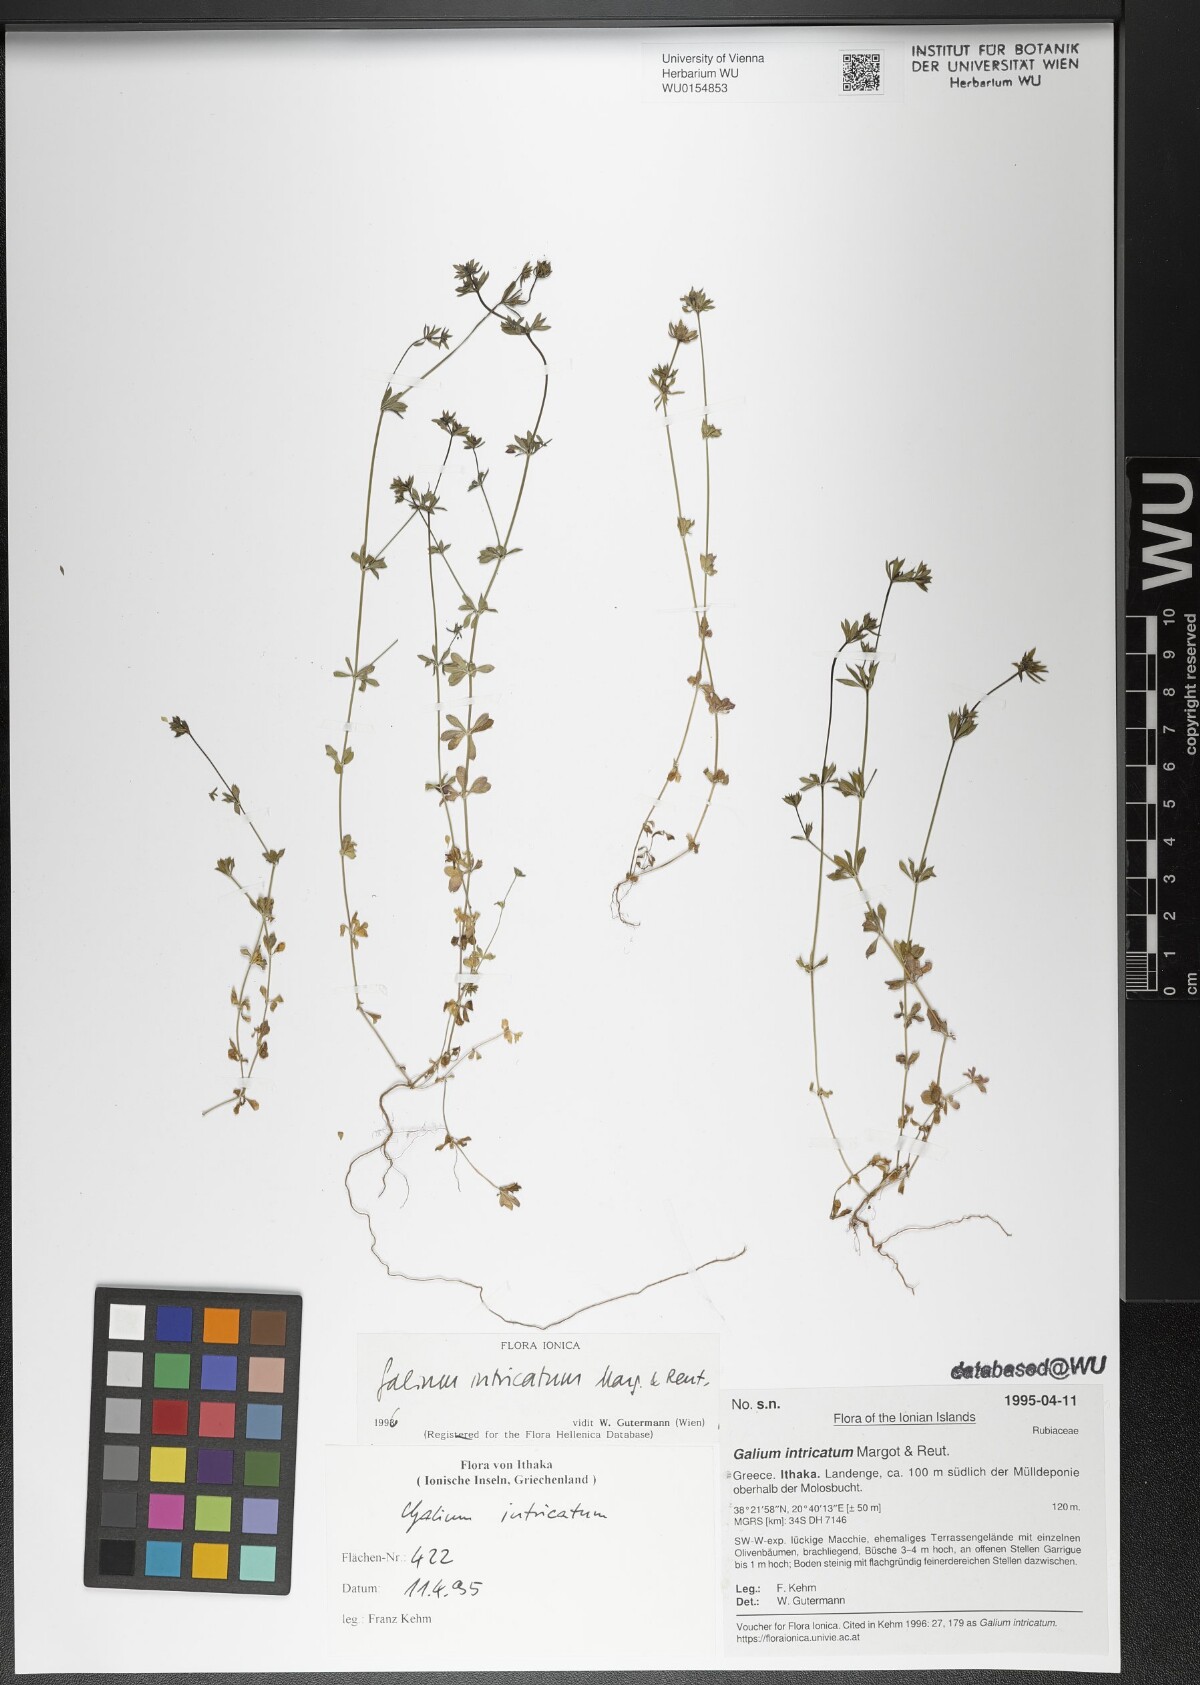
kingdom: Plantae
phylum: Tracheophyta
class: Magnoliopsida
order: Gentianales
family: Rubiaceae
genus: Galium
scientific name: Galium intricatum
